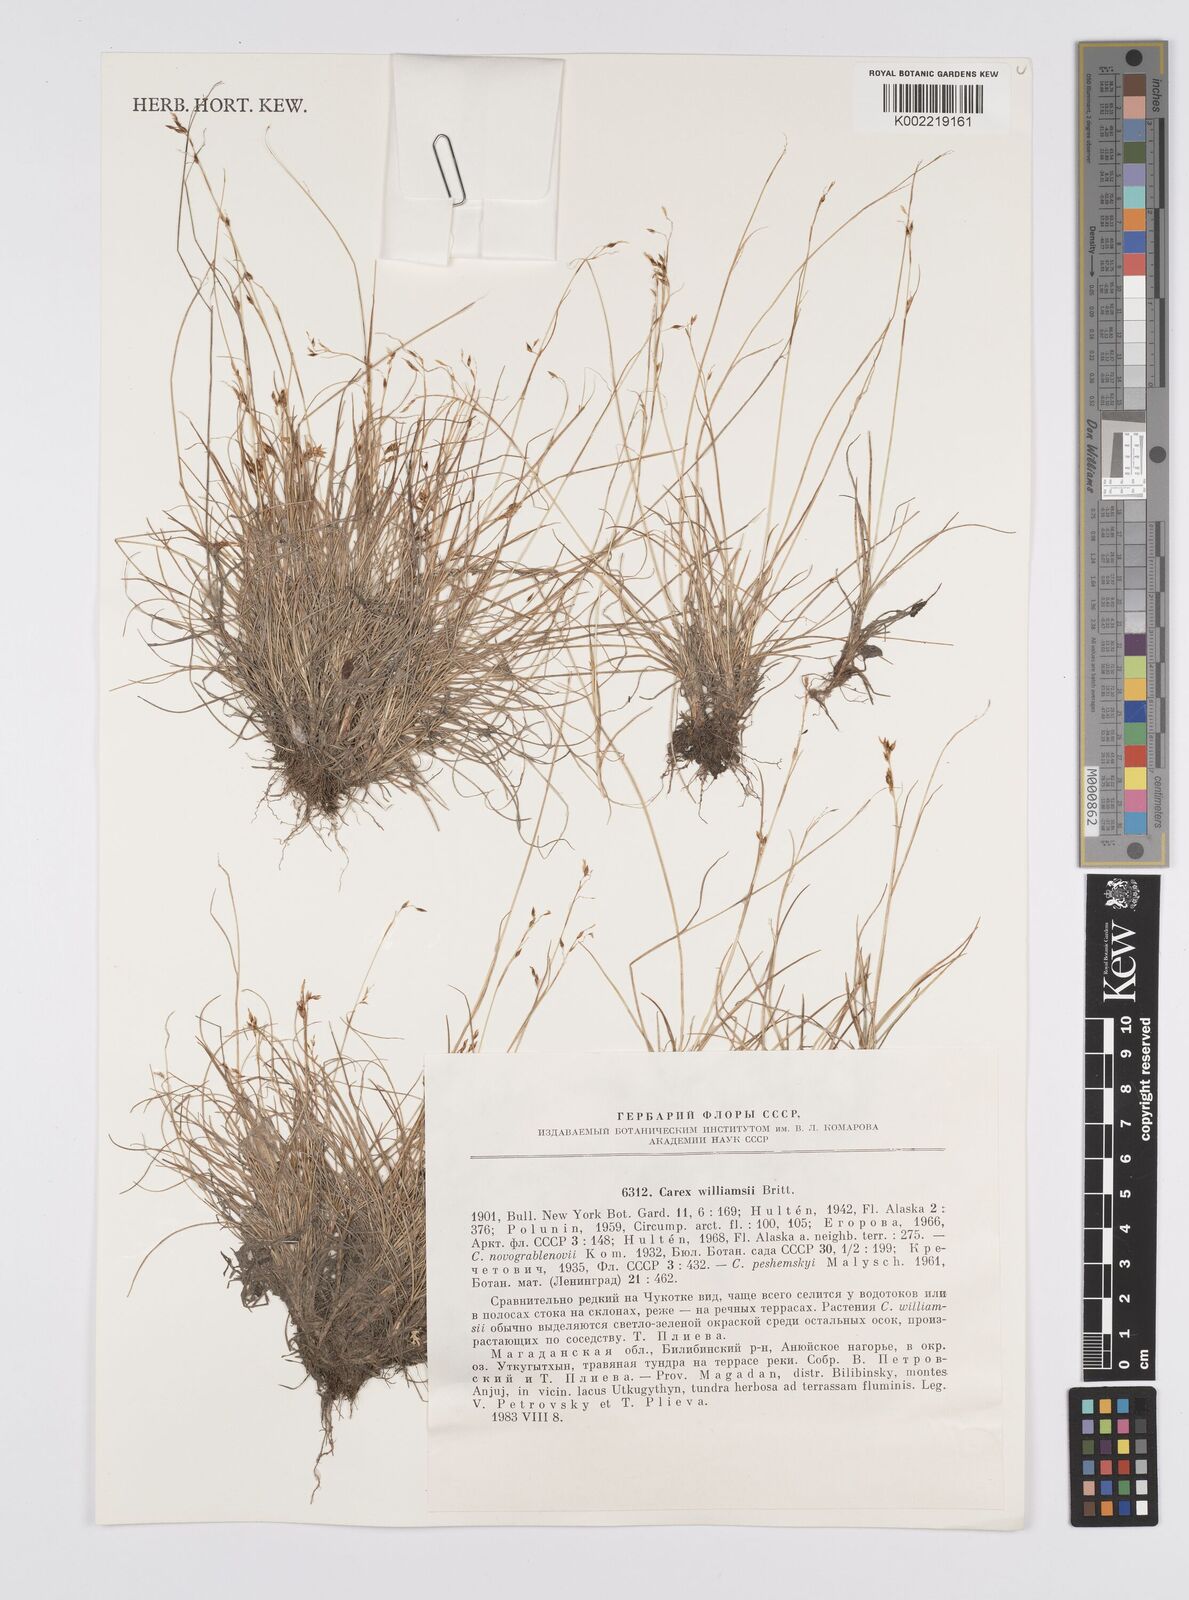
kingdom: Plantae
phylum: Tracheophyta
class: Liliopsida
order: Poales
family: Cyperaceae
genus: Carex
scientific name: Carex williamsii
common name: Williams' sedge
